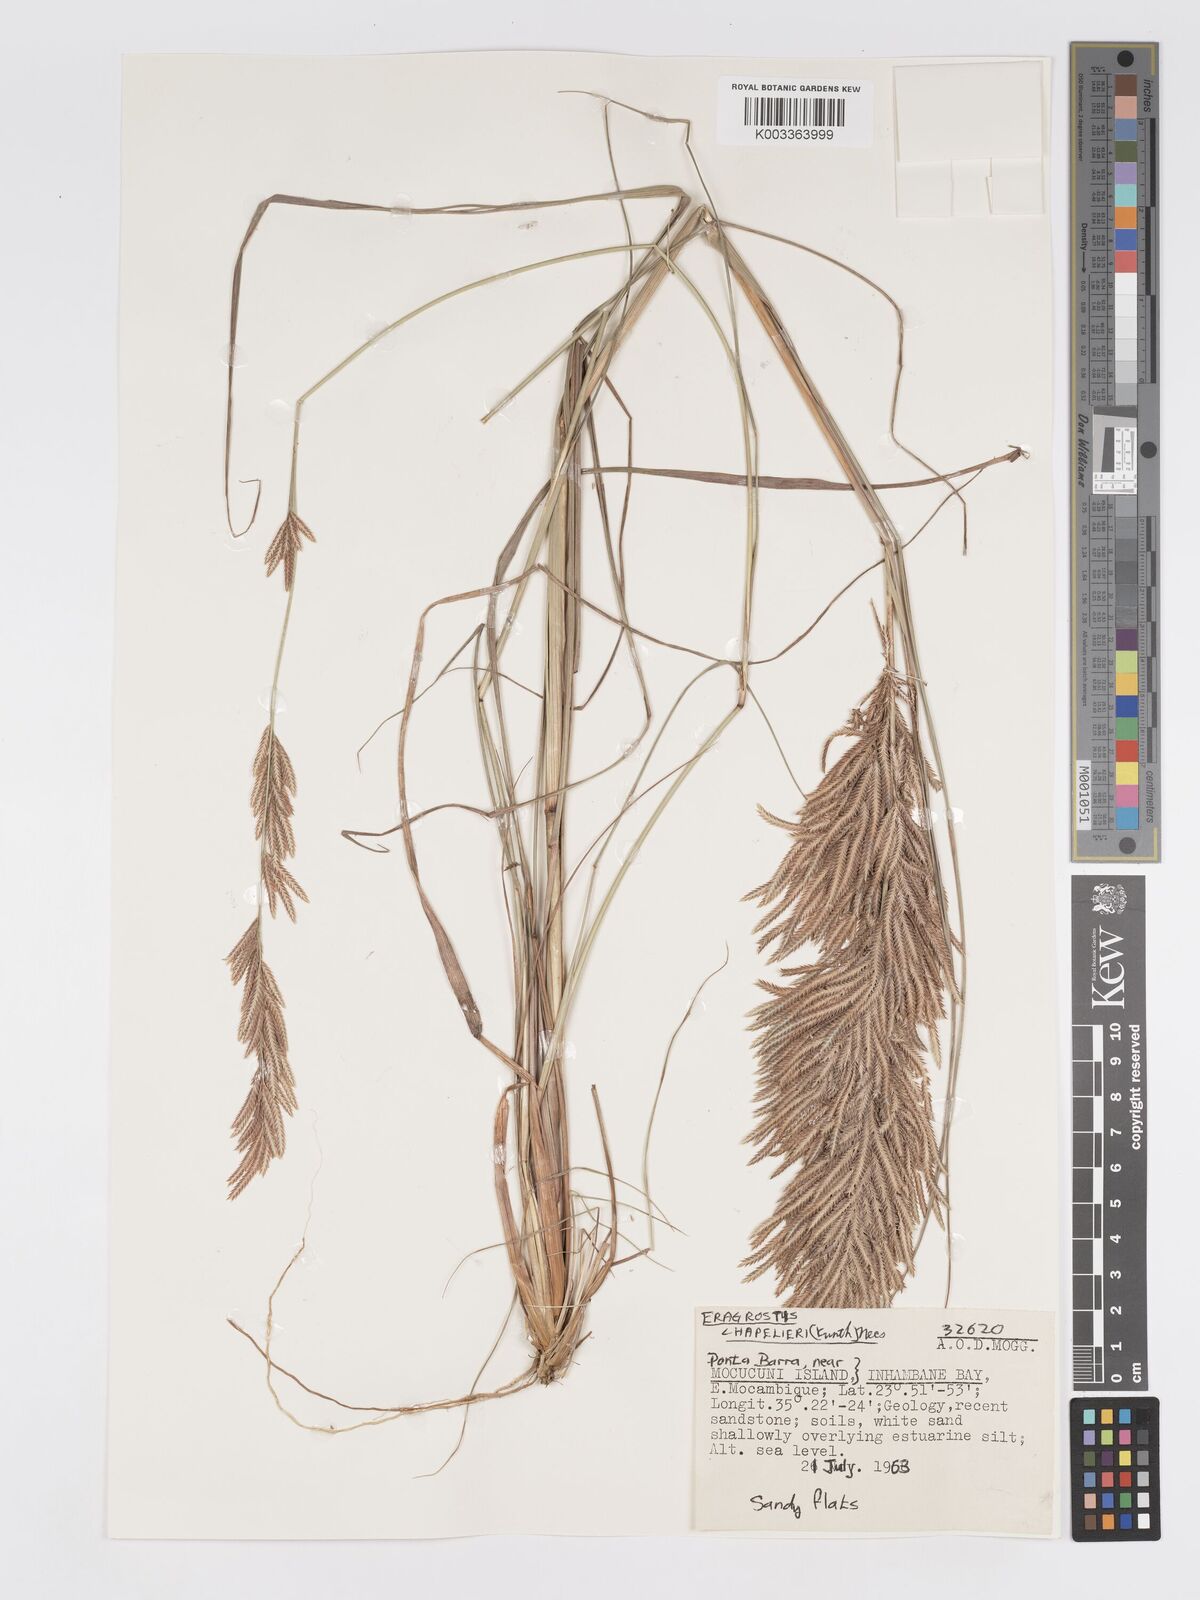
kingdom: Plantae
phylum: Tracheophyta
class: Liliopsida
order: Poales
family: Poaceae
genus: Eragrostis
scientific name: Eragrostis chapelieri
